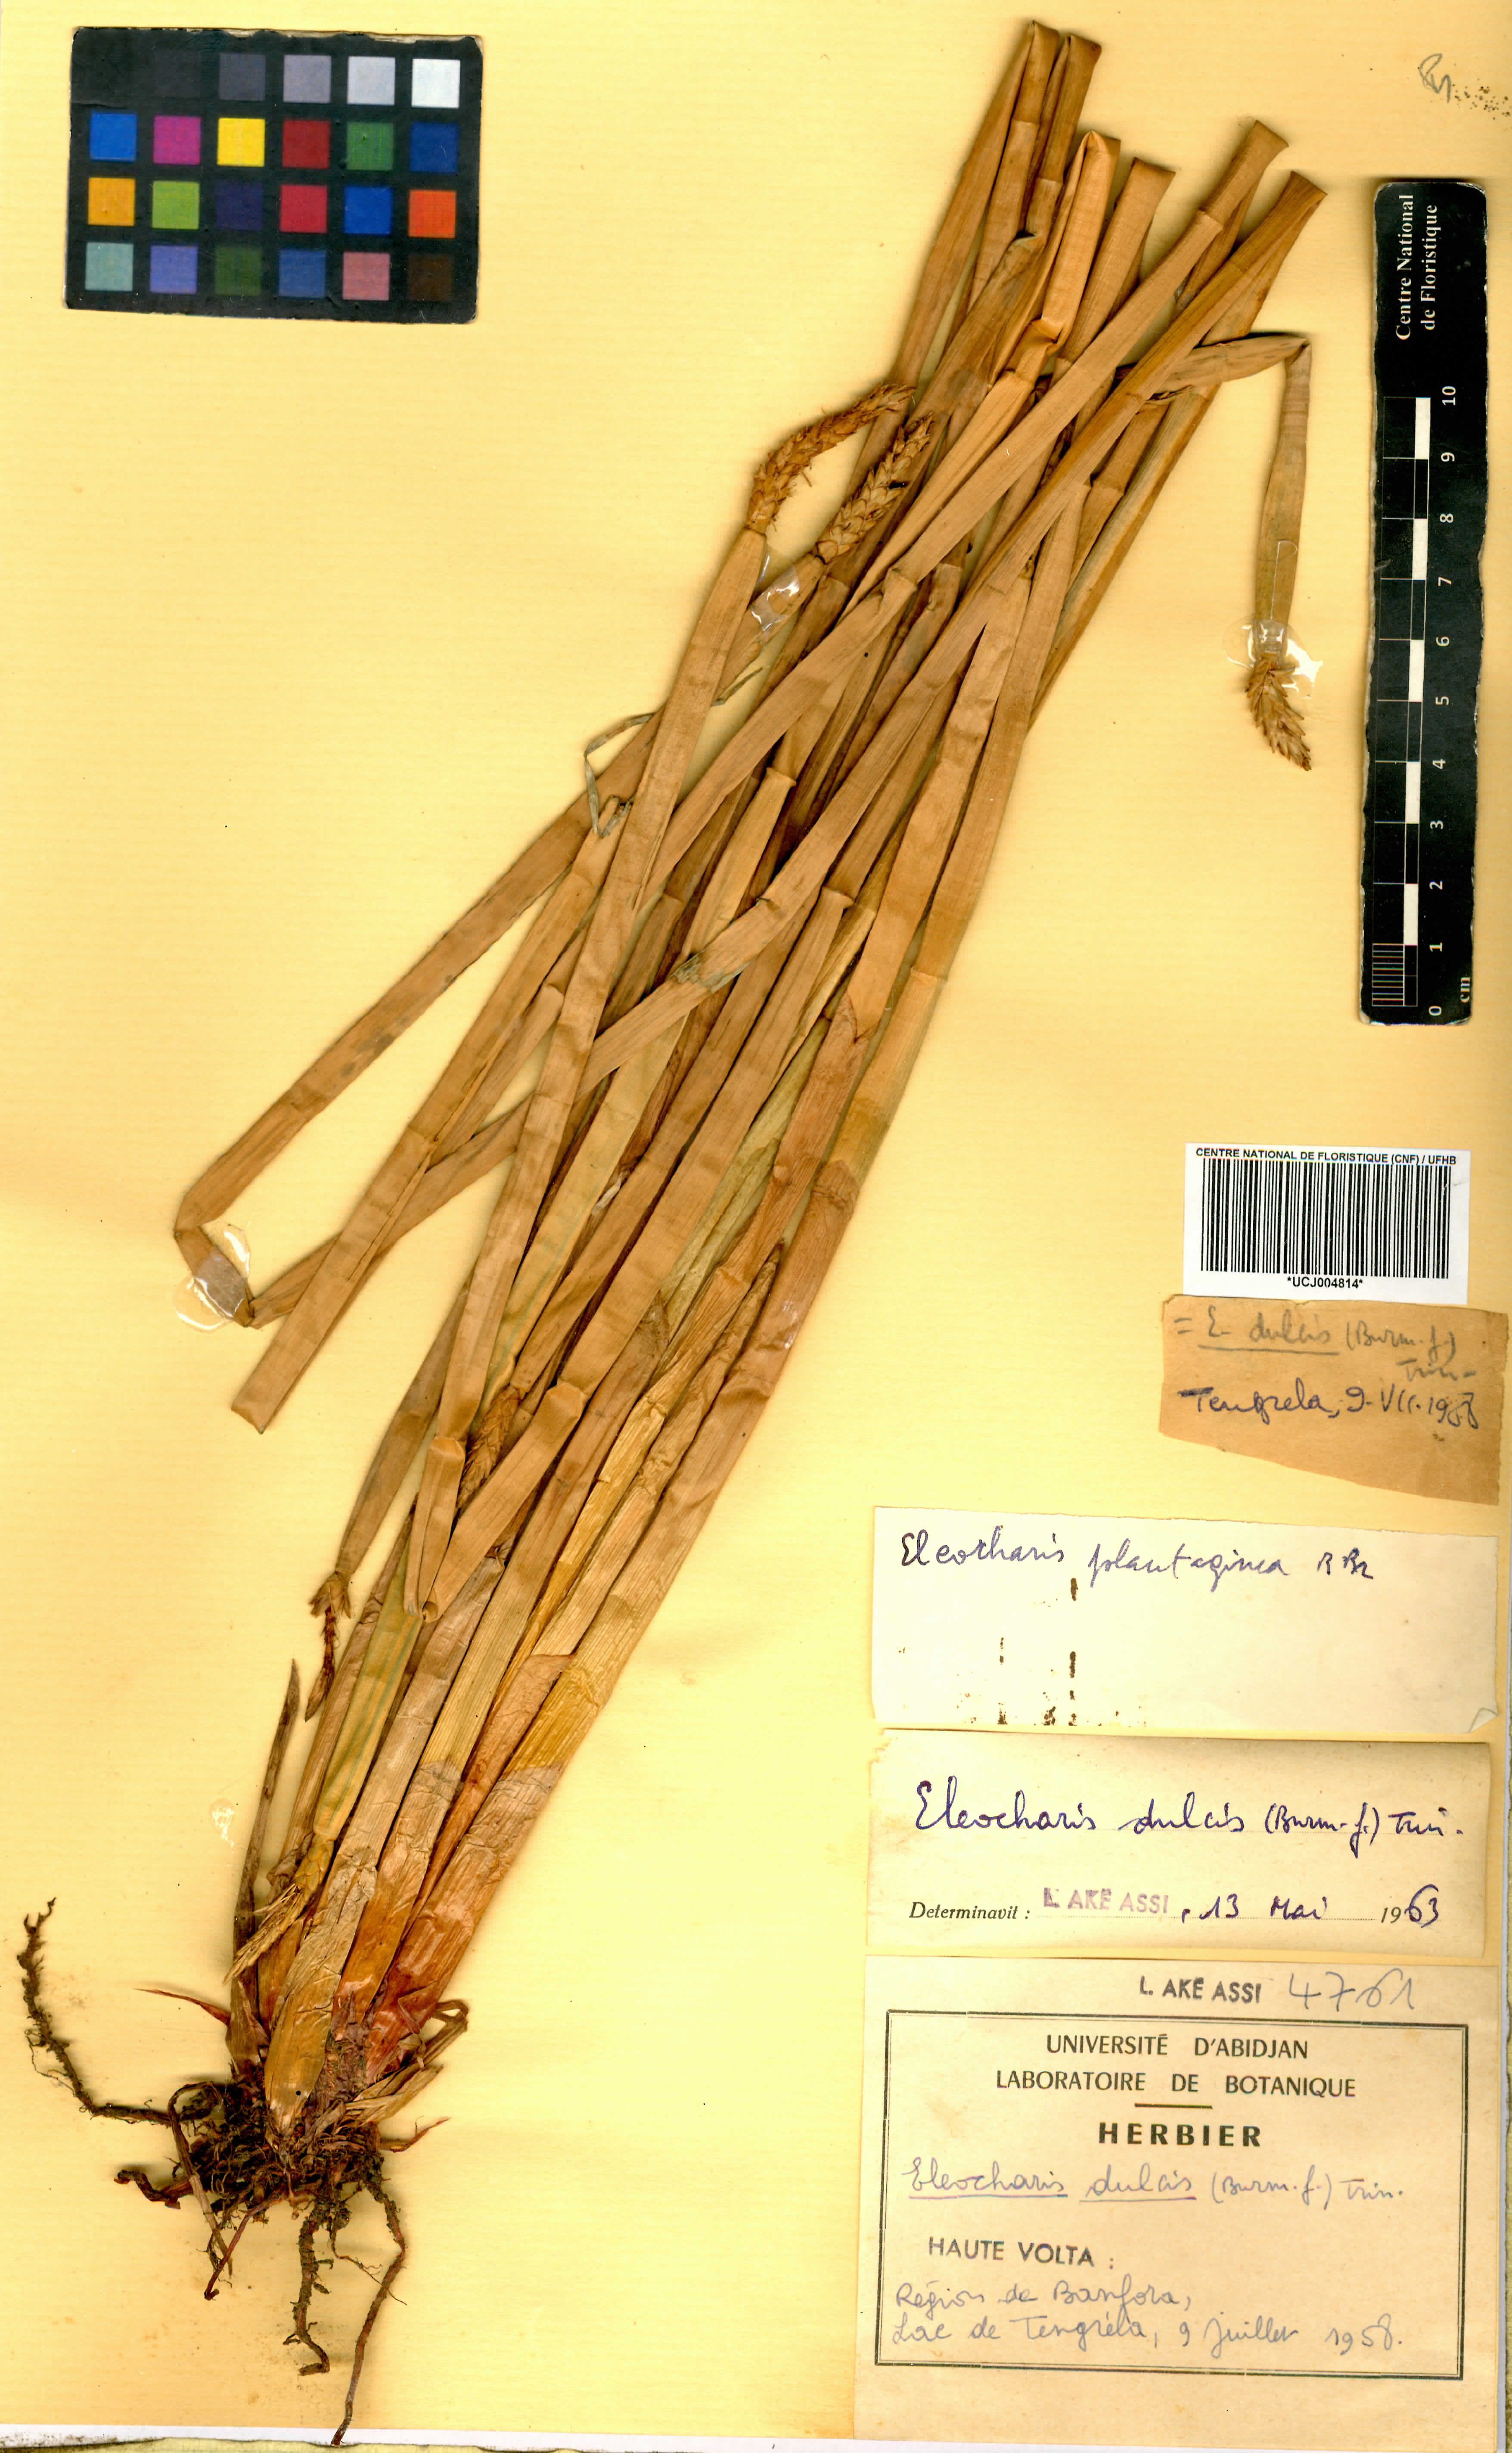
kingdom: Plantae
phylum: Tracheophyta
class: Liliopsida
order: Poales
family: Cyperaceae
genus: Eleocharis
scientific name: Eleocharis dulcis
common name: Chinese water chestnut
